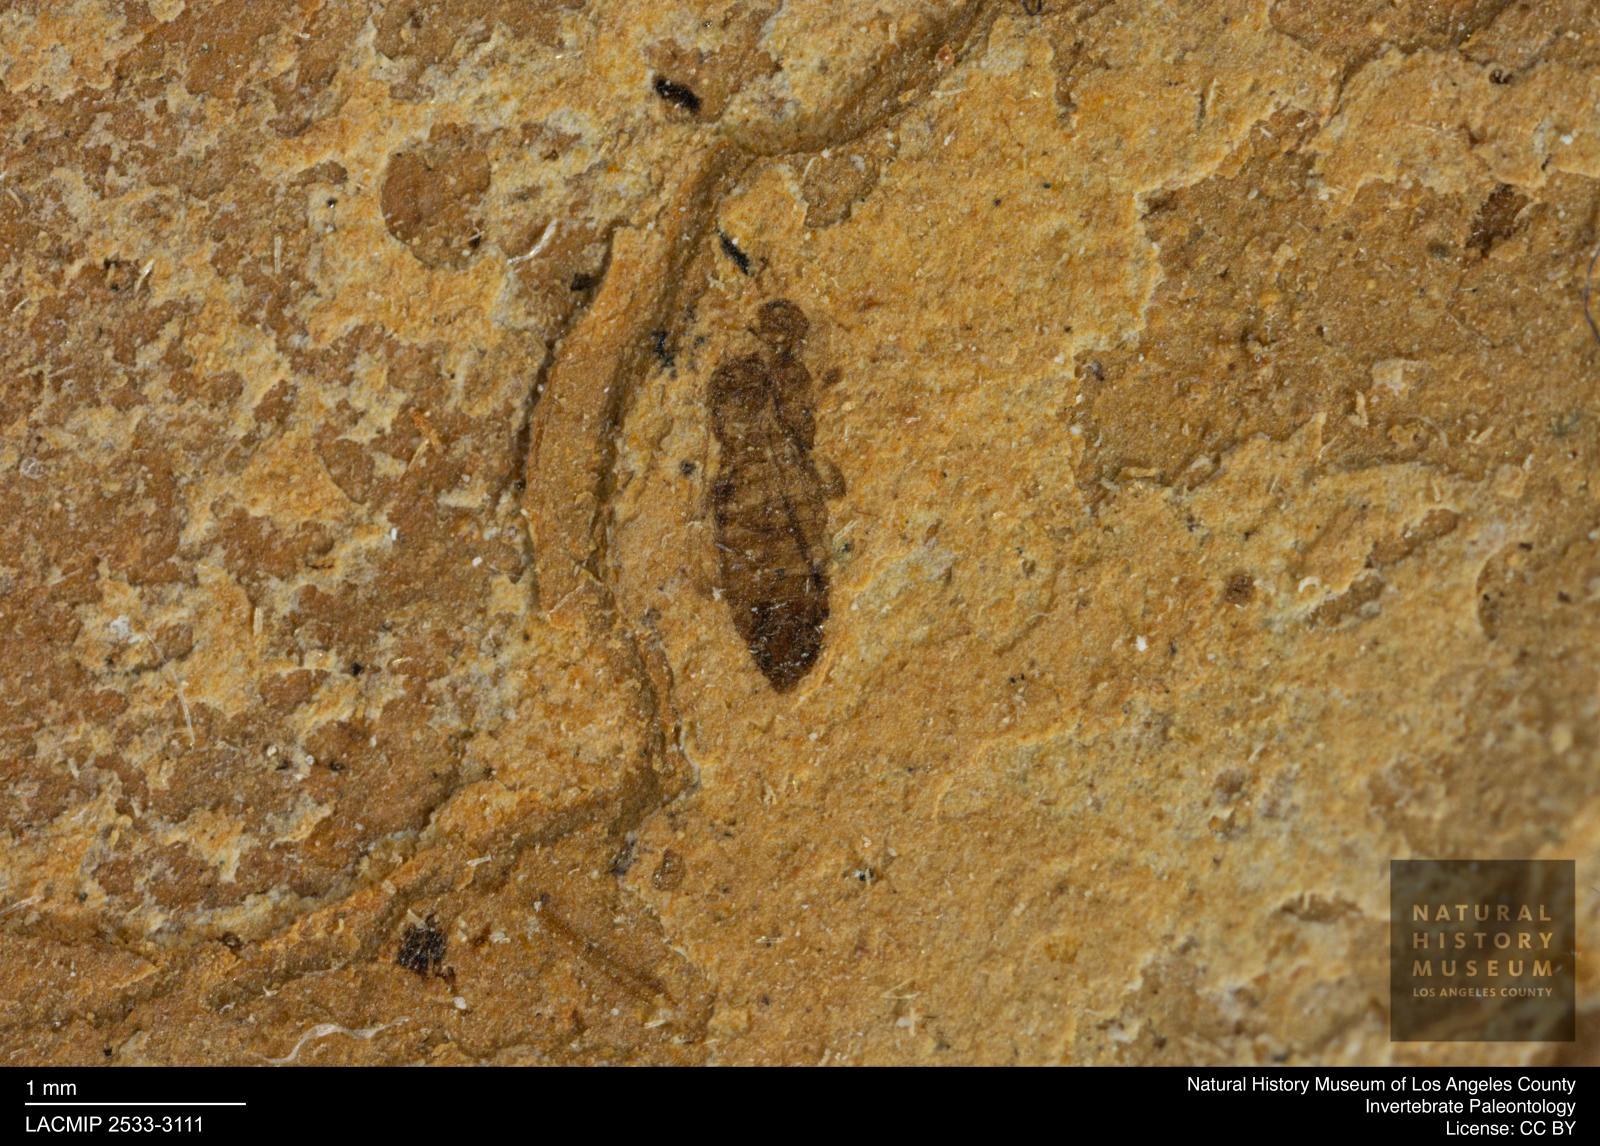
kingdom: Animalia
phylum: Arthropoda
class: Insecta
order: Thysanoptera
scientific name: Thysanoptera
